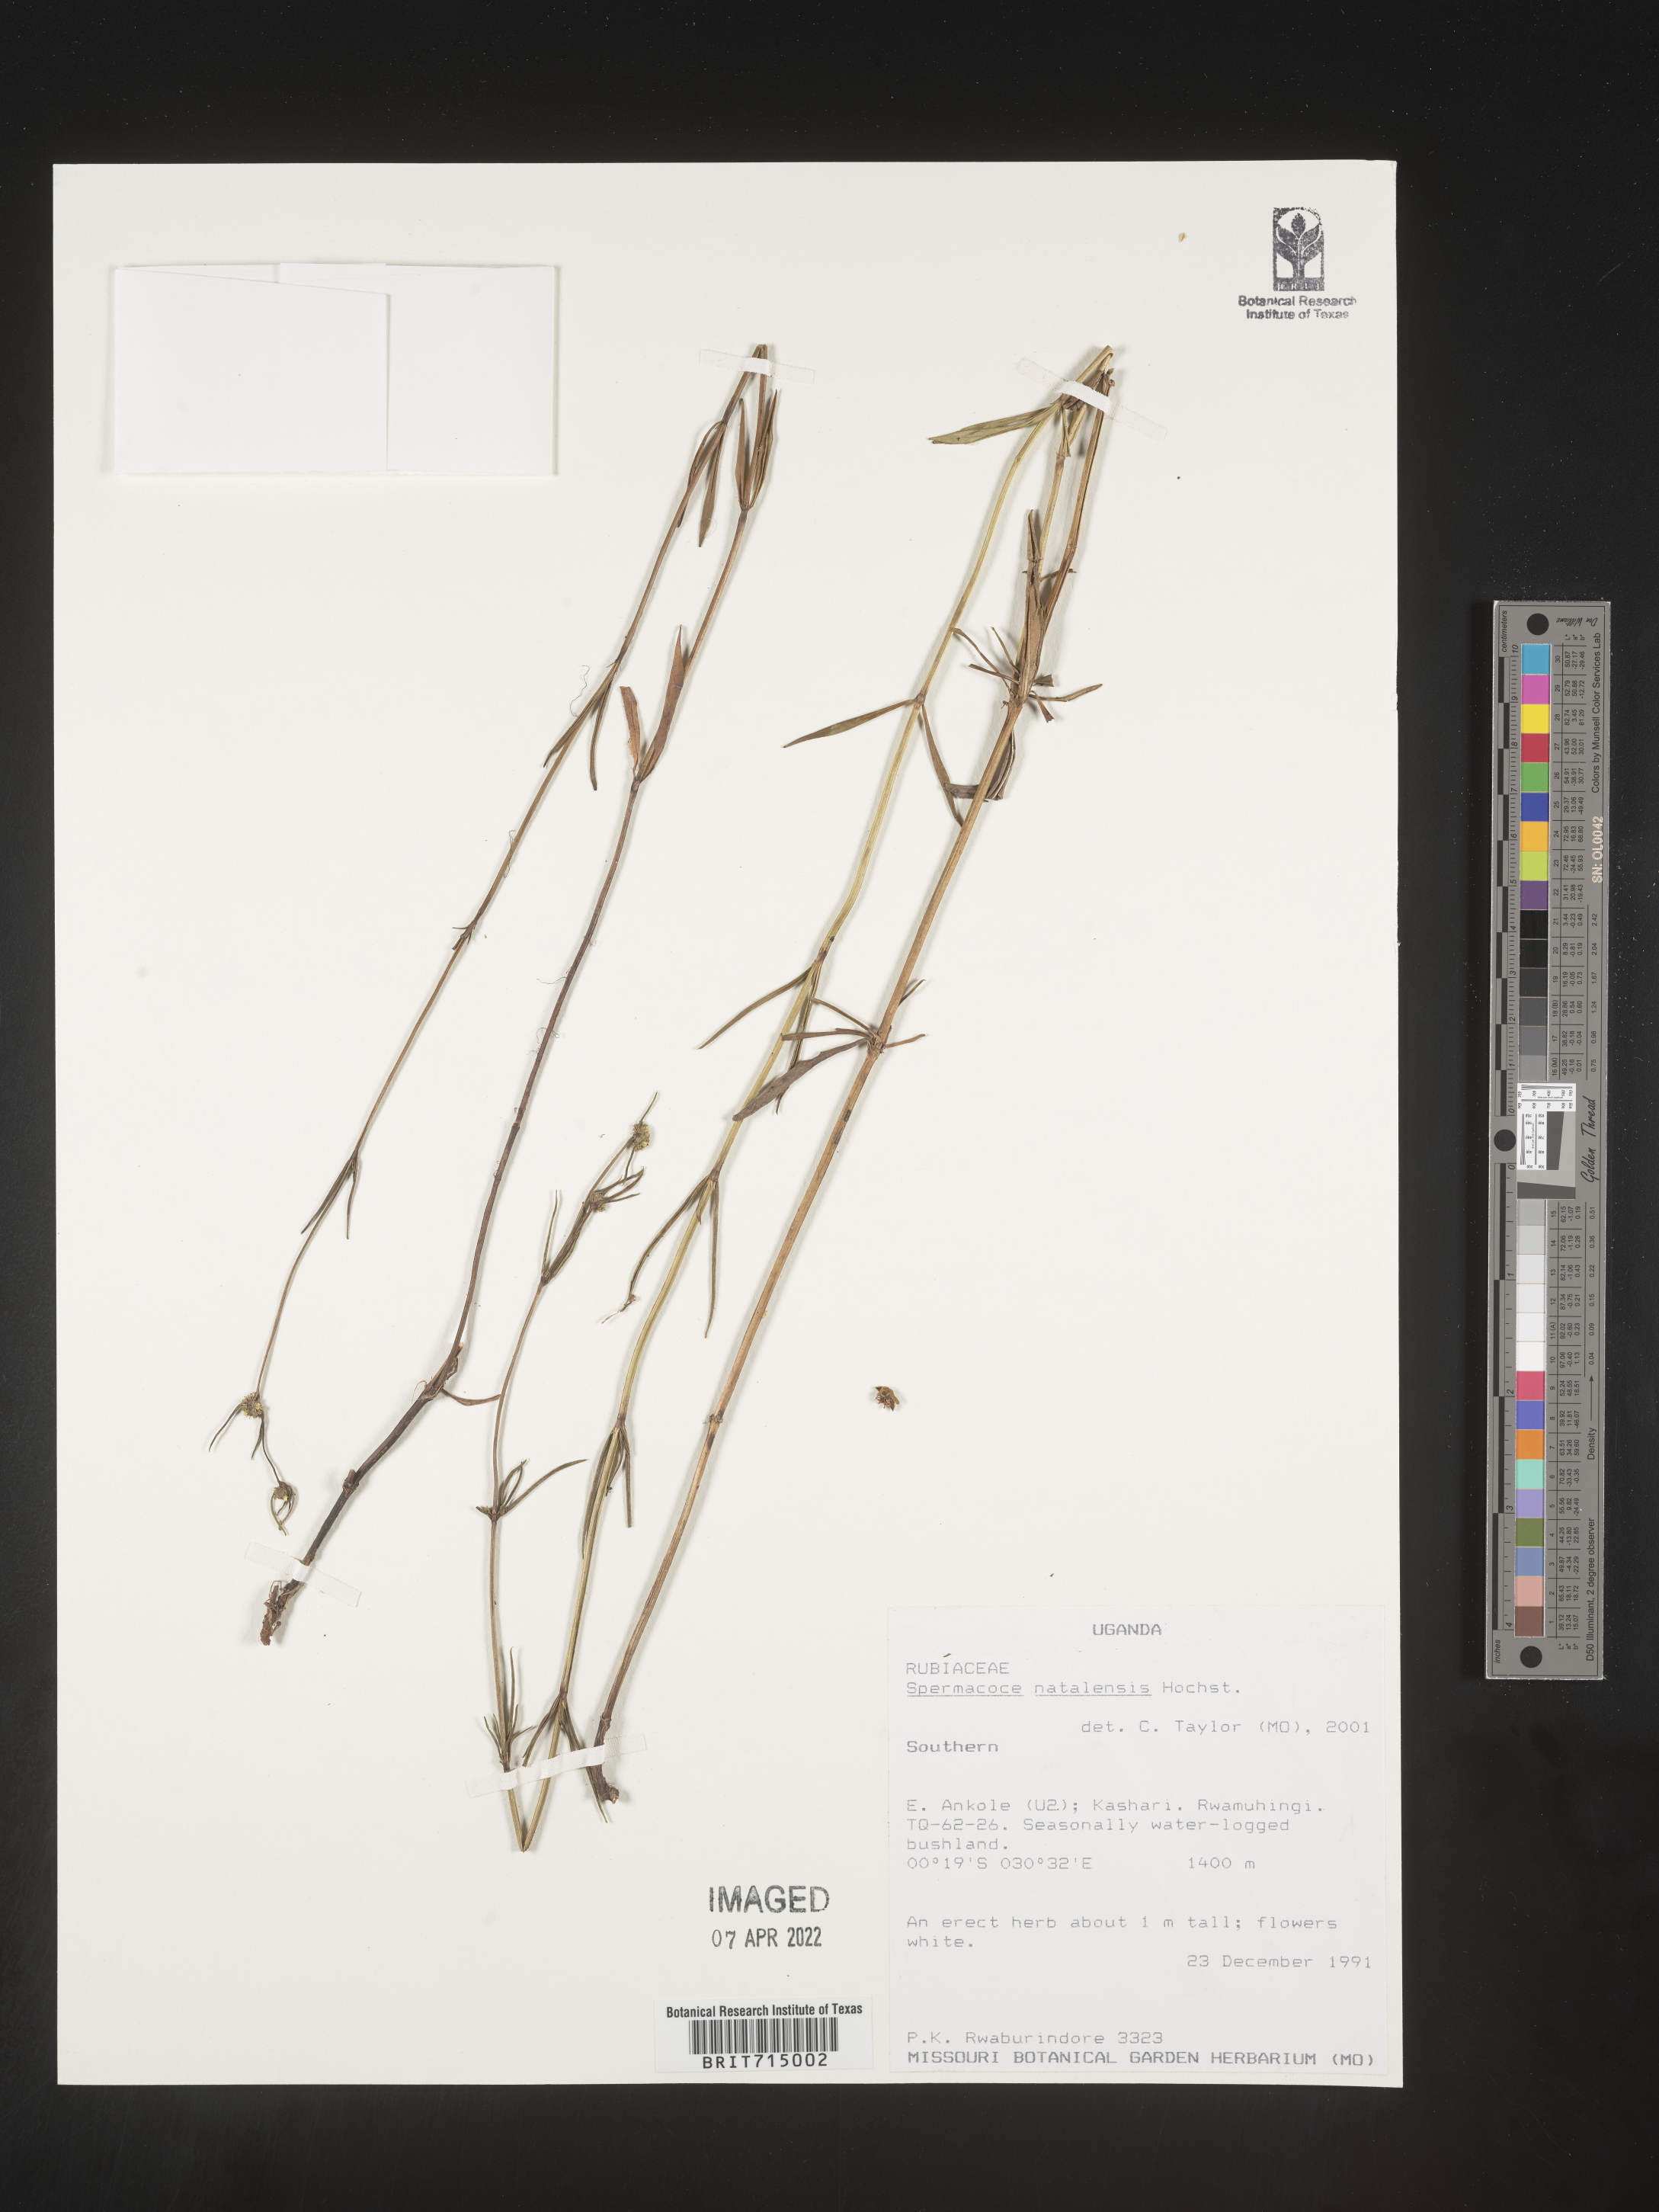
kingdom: Plantae
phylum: Tracheophyta
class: Magnoliopsida
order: Gentianales
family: Rubiaceae
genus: Spermacoce
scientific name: Spermacoce
